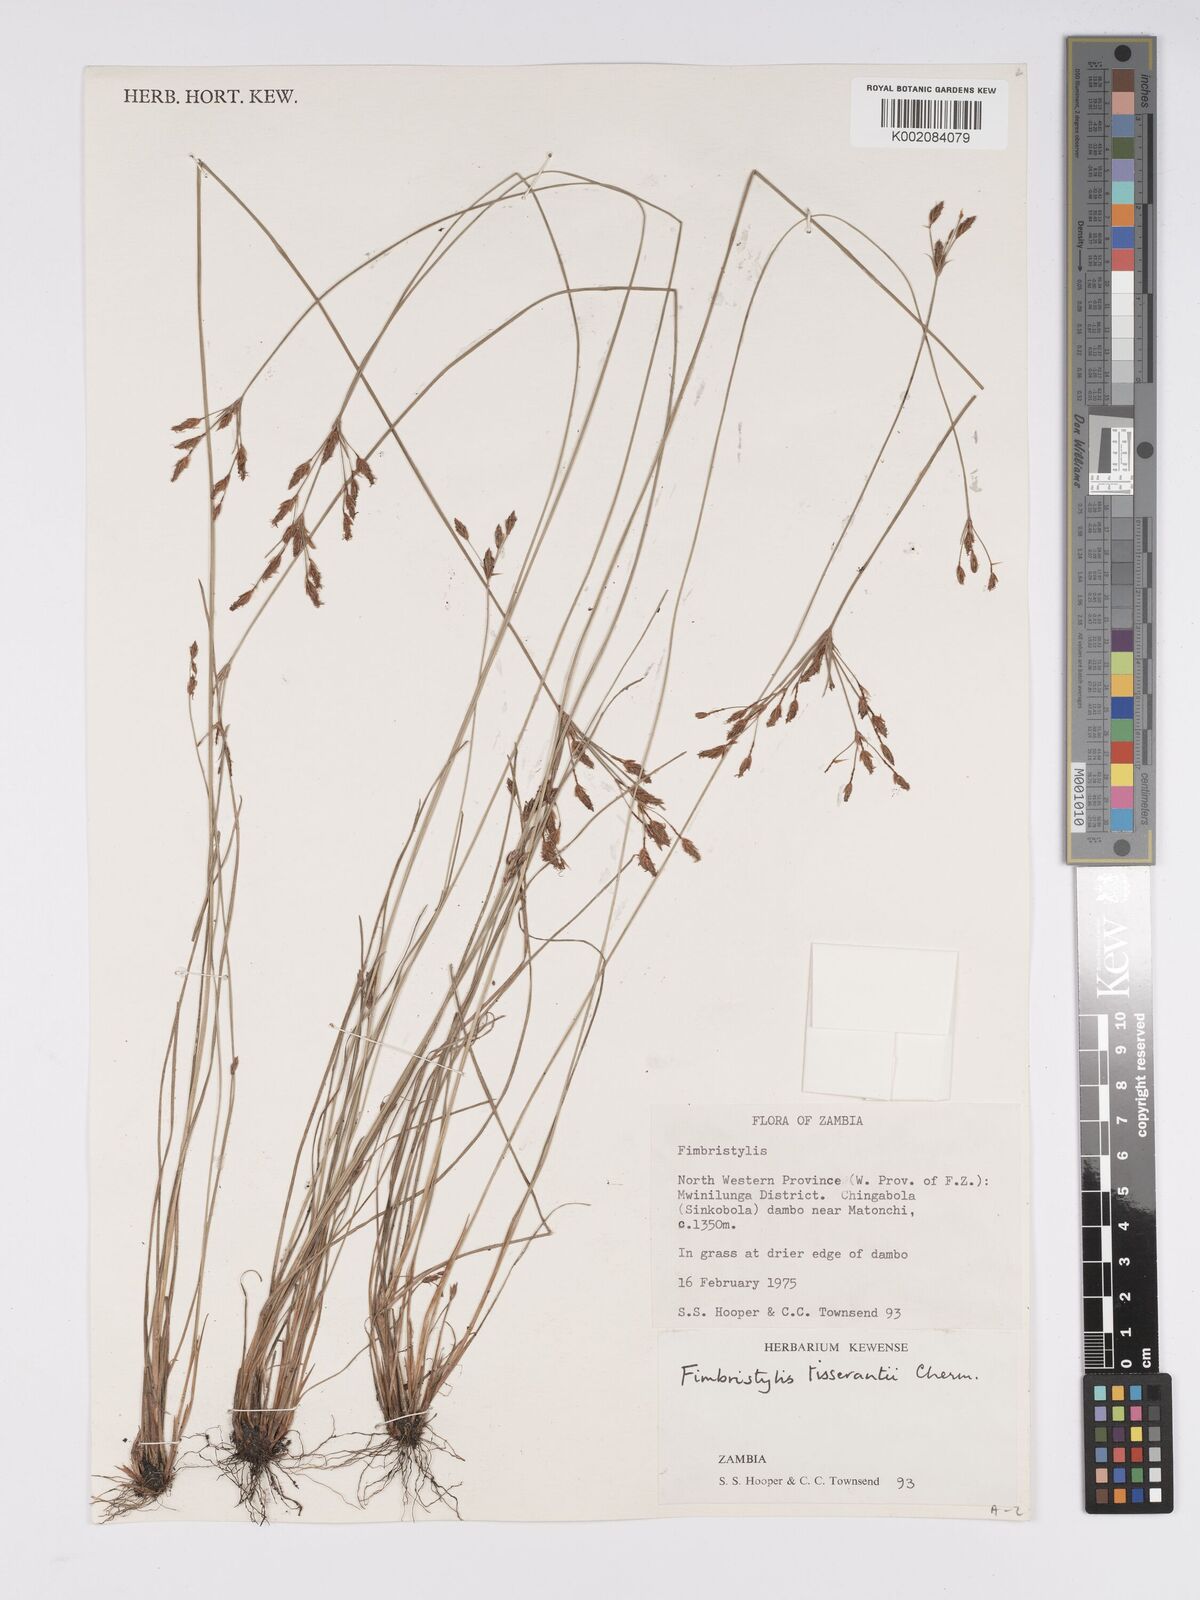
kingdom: Plantae
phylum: Tracheophyta
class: Liliopsida
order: Poales
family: Cyperaceae
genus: Bulbostylis
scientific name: Bulbostylis viridecarinata
